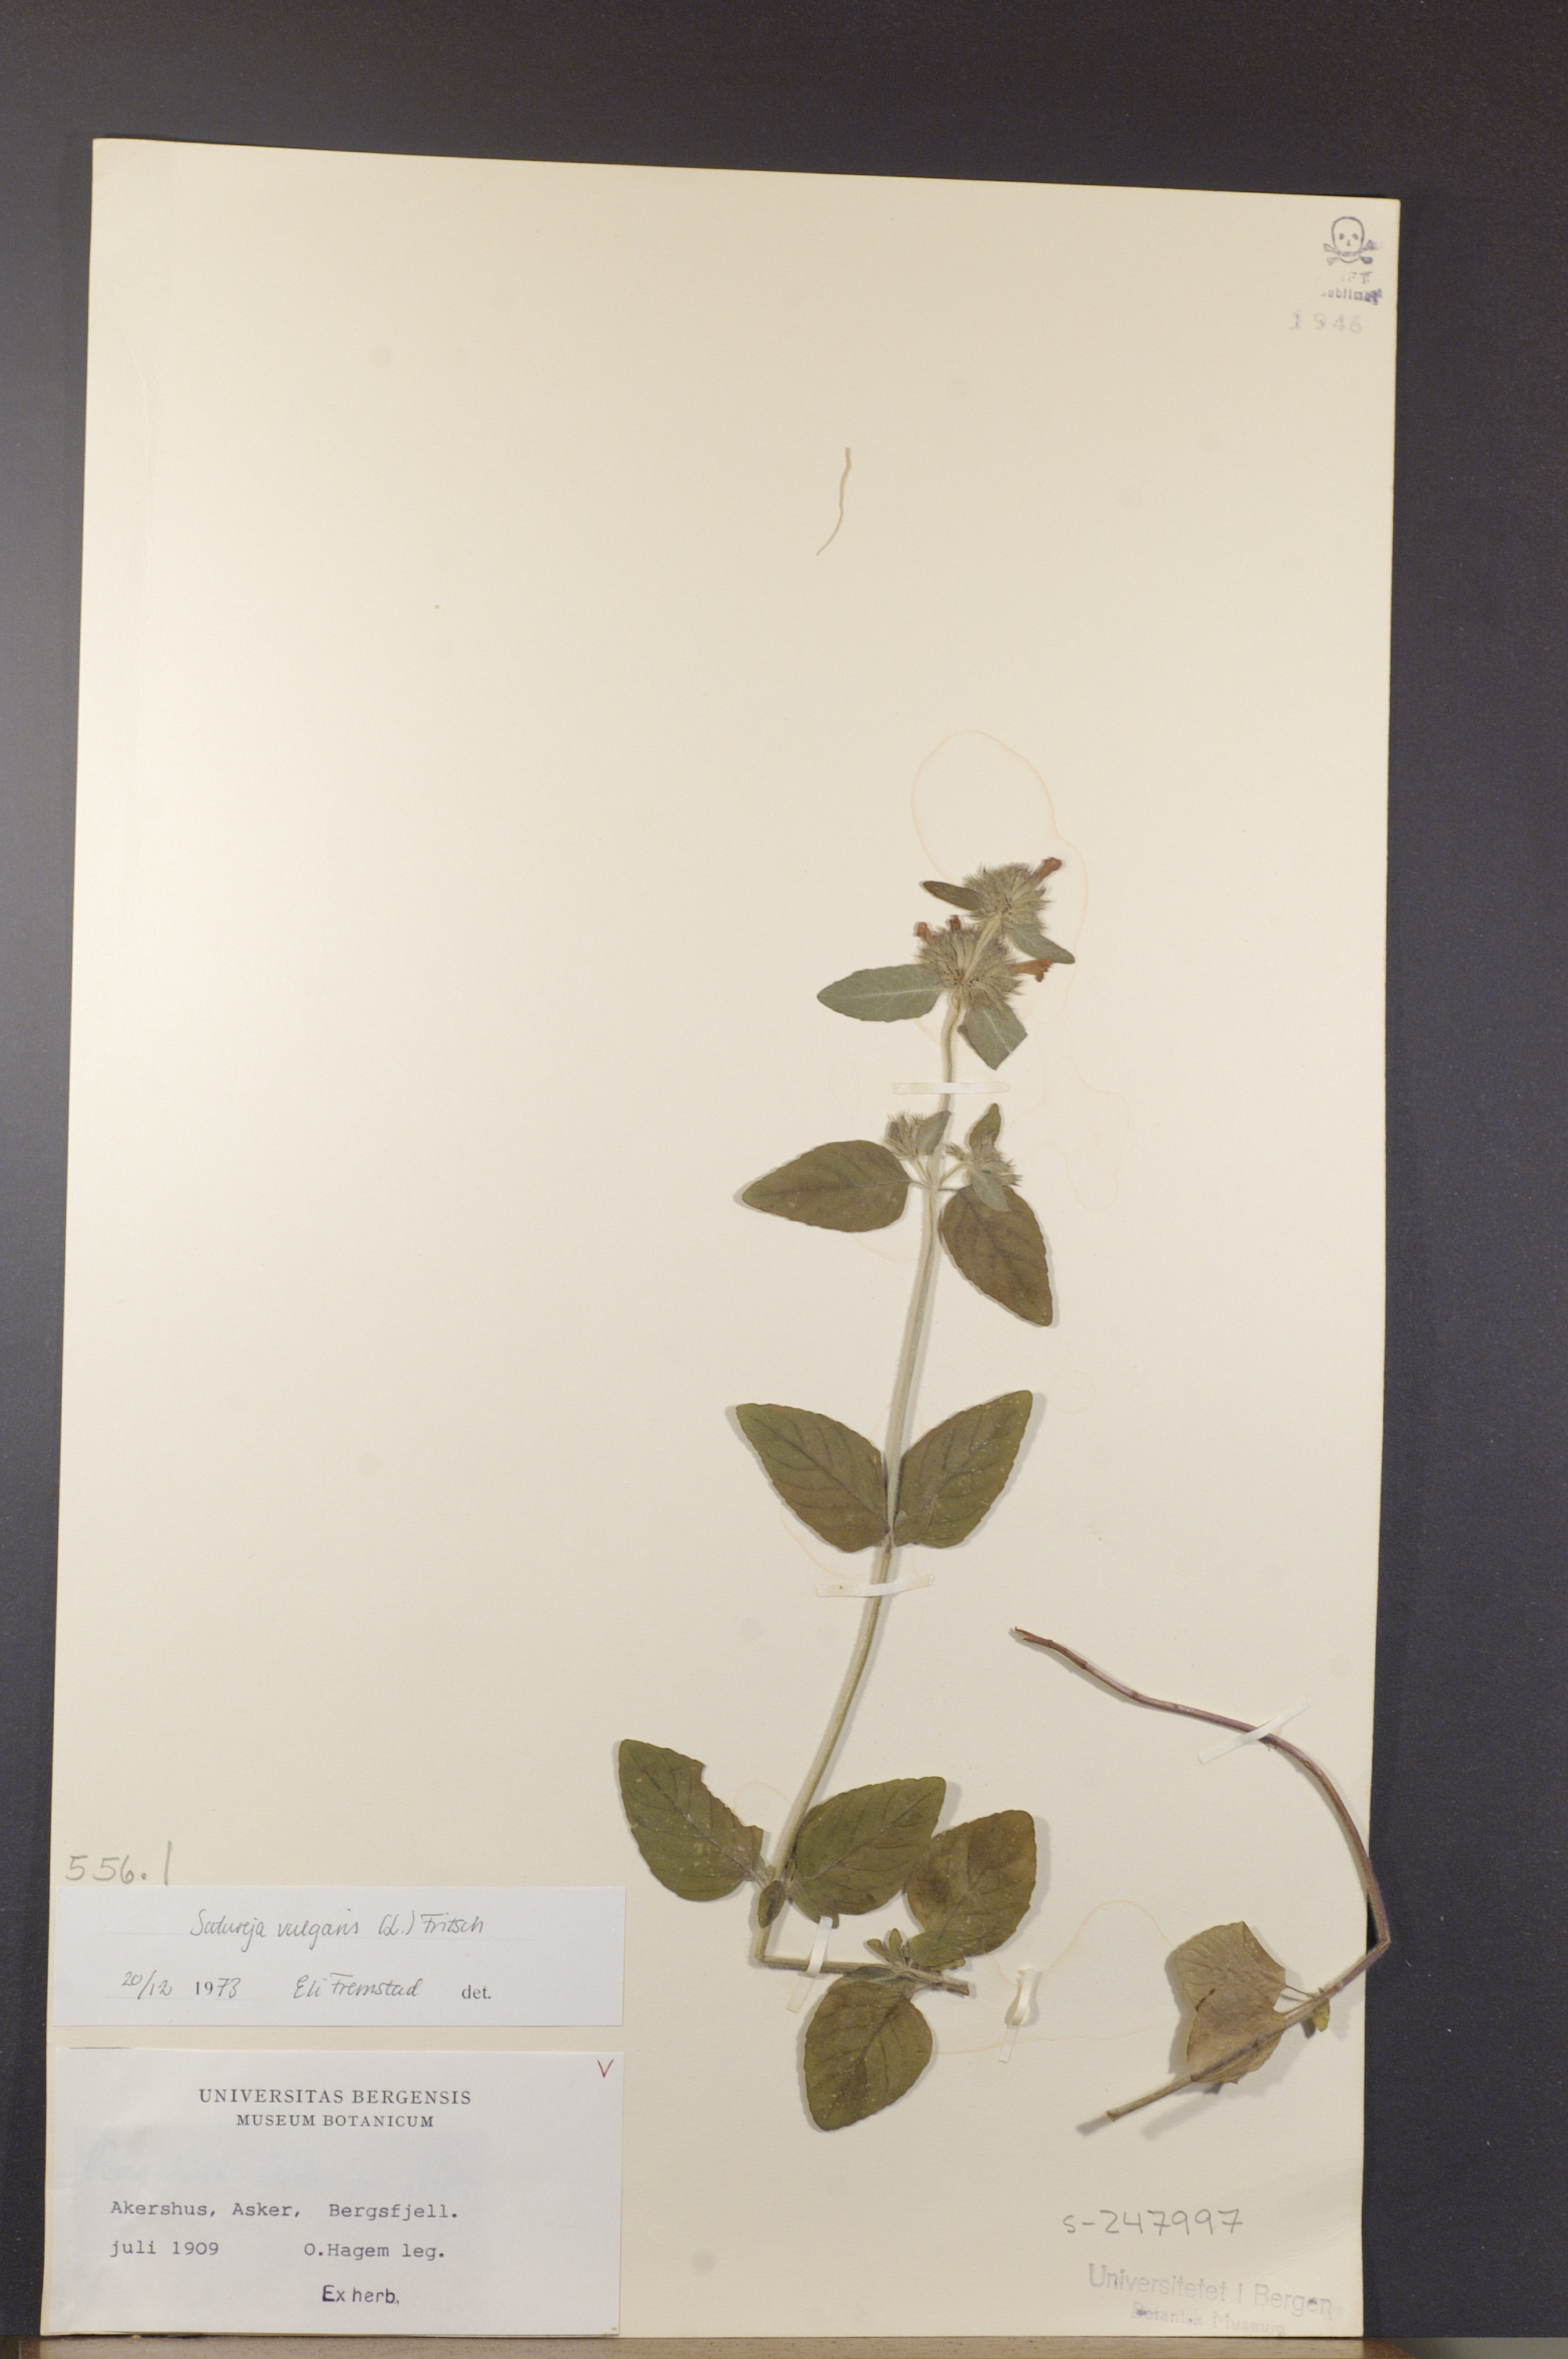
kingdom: Plantae
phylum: Tracheophyta
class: Magnoliopsida
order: Lamiales
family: Lamiaceae
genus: Clinopodium
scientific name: Clinopodium vulgare
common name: Wild basil
